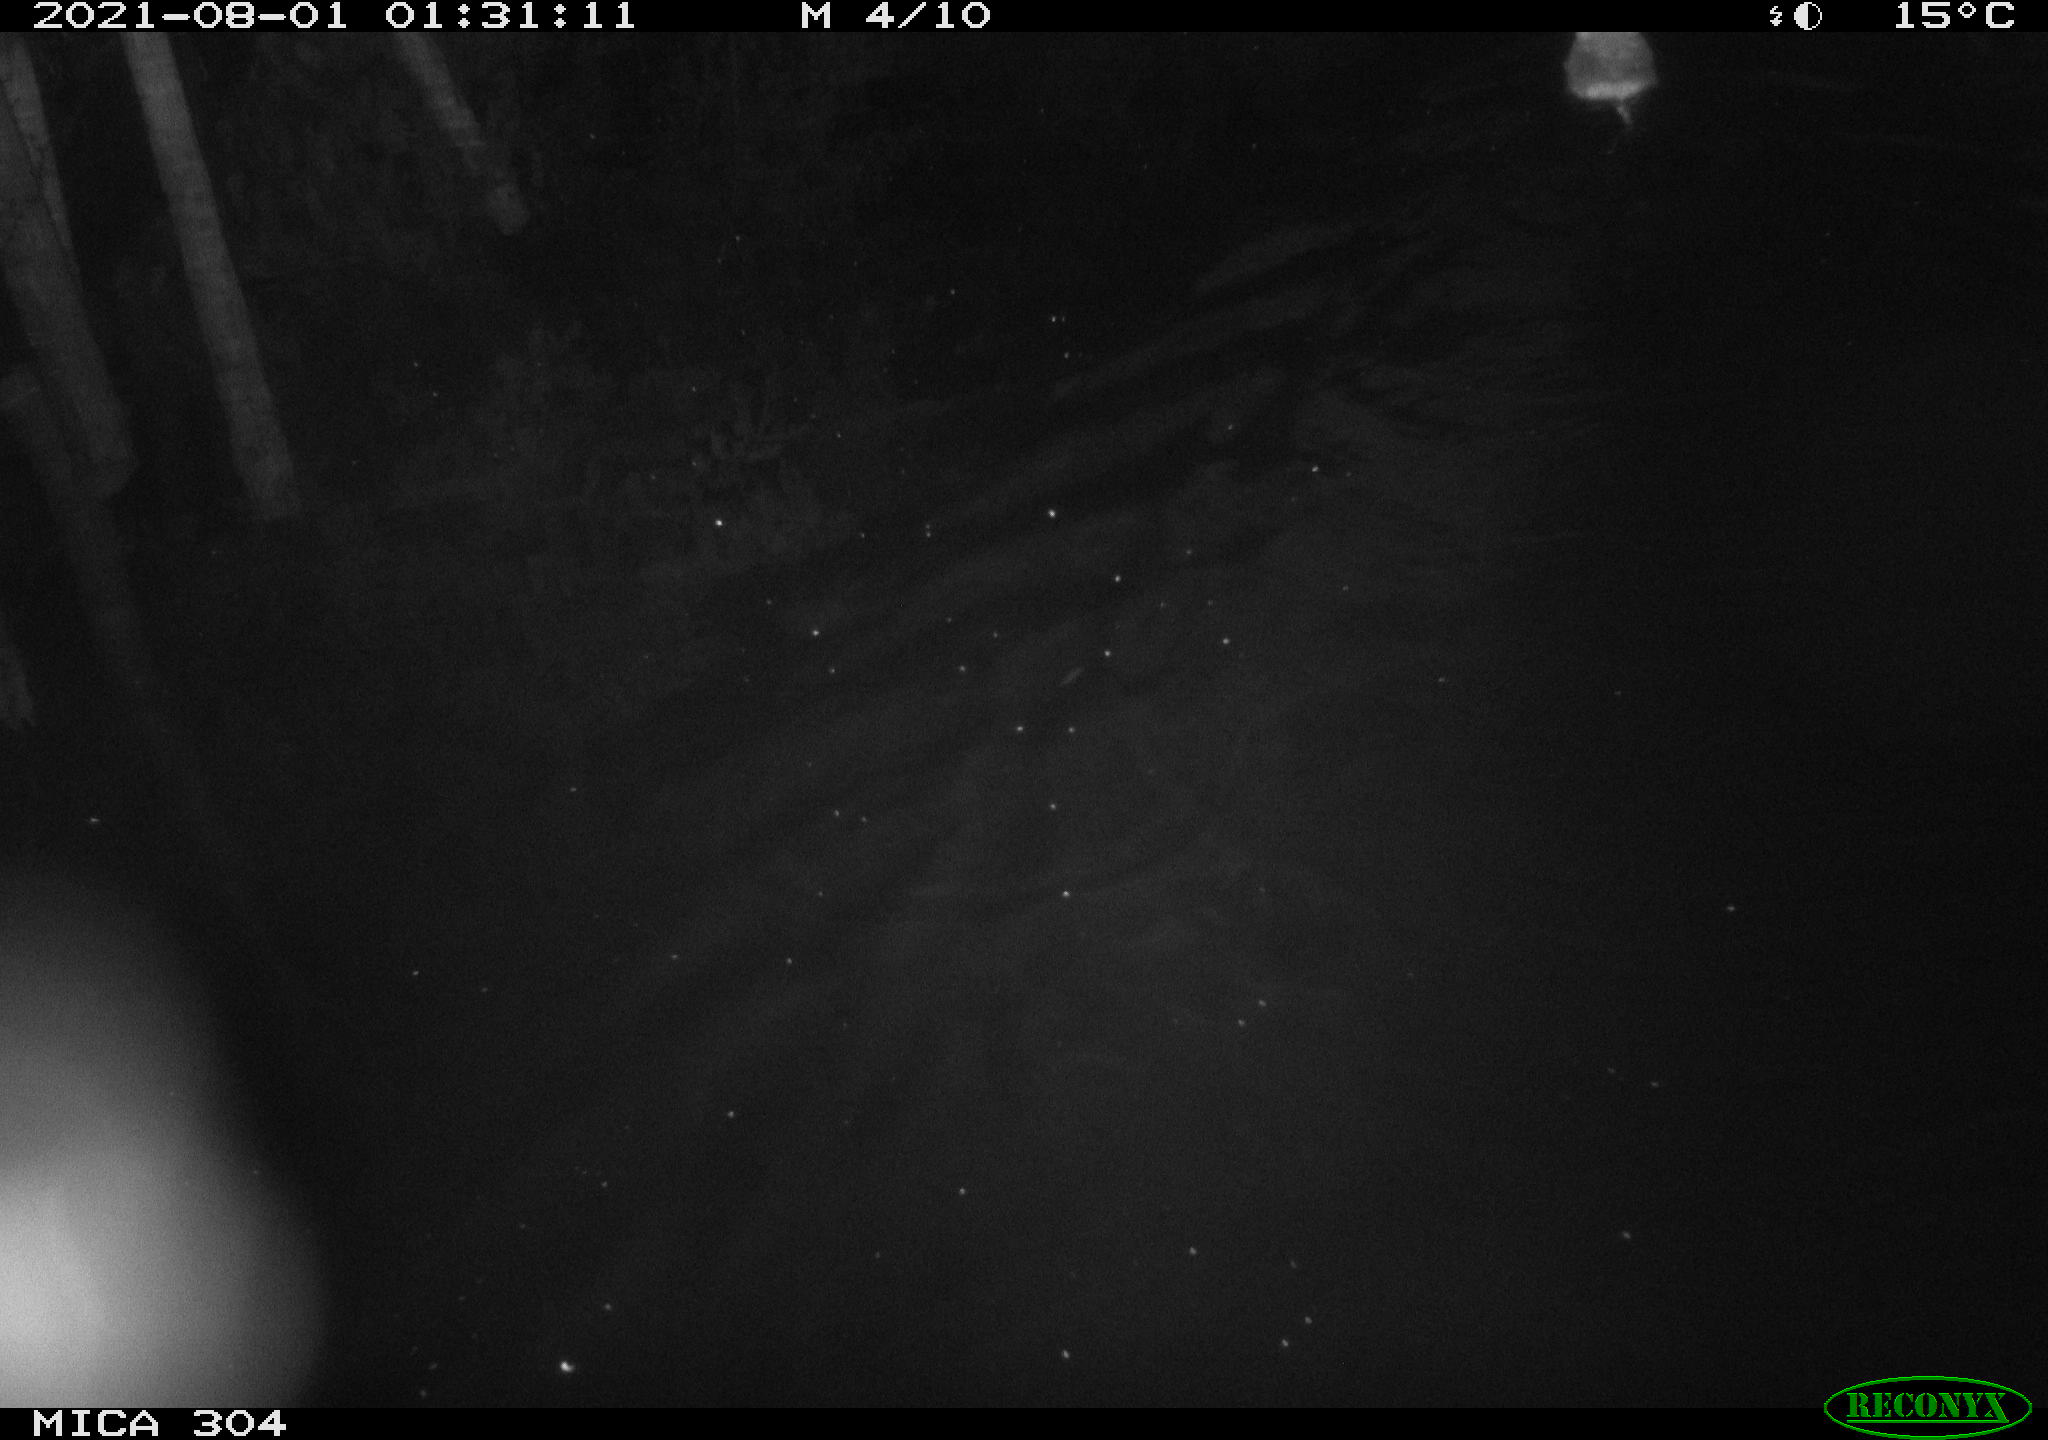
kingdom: Animalia
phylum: Chordata
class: Mammalia
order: Rodentia
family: Cricetidae
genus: Ondatra
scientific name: Ondatra zibethicus
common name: Muskrat
